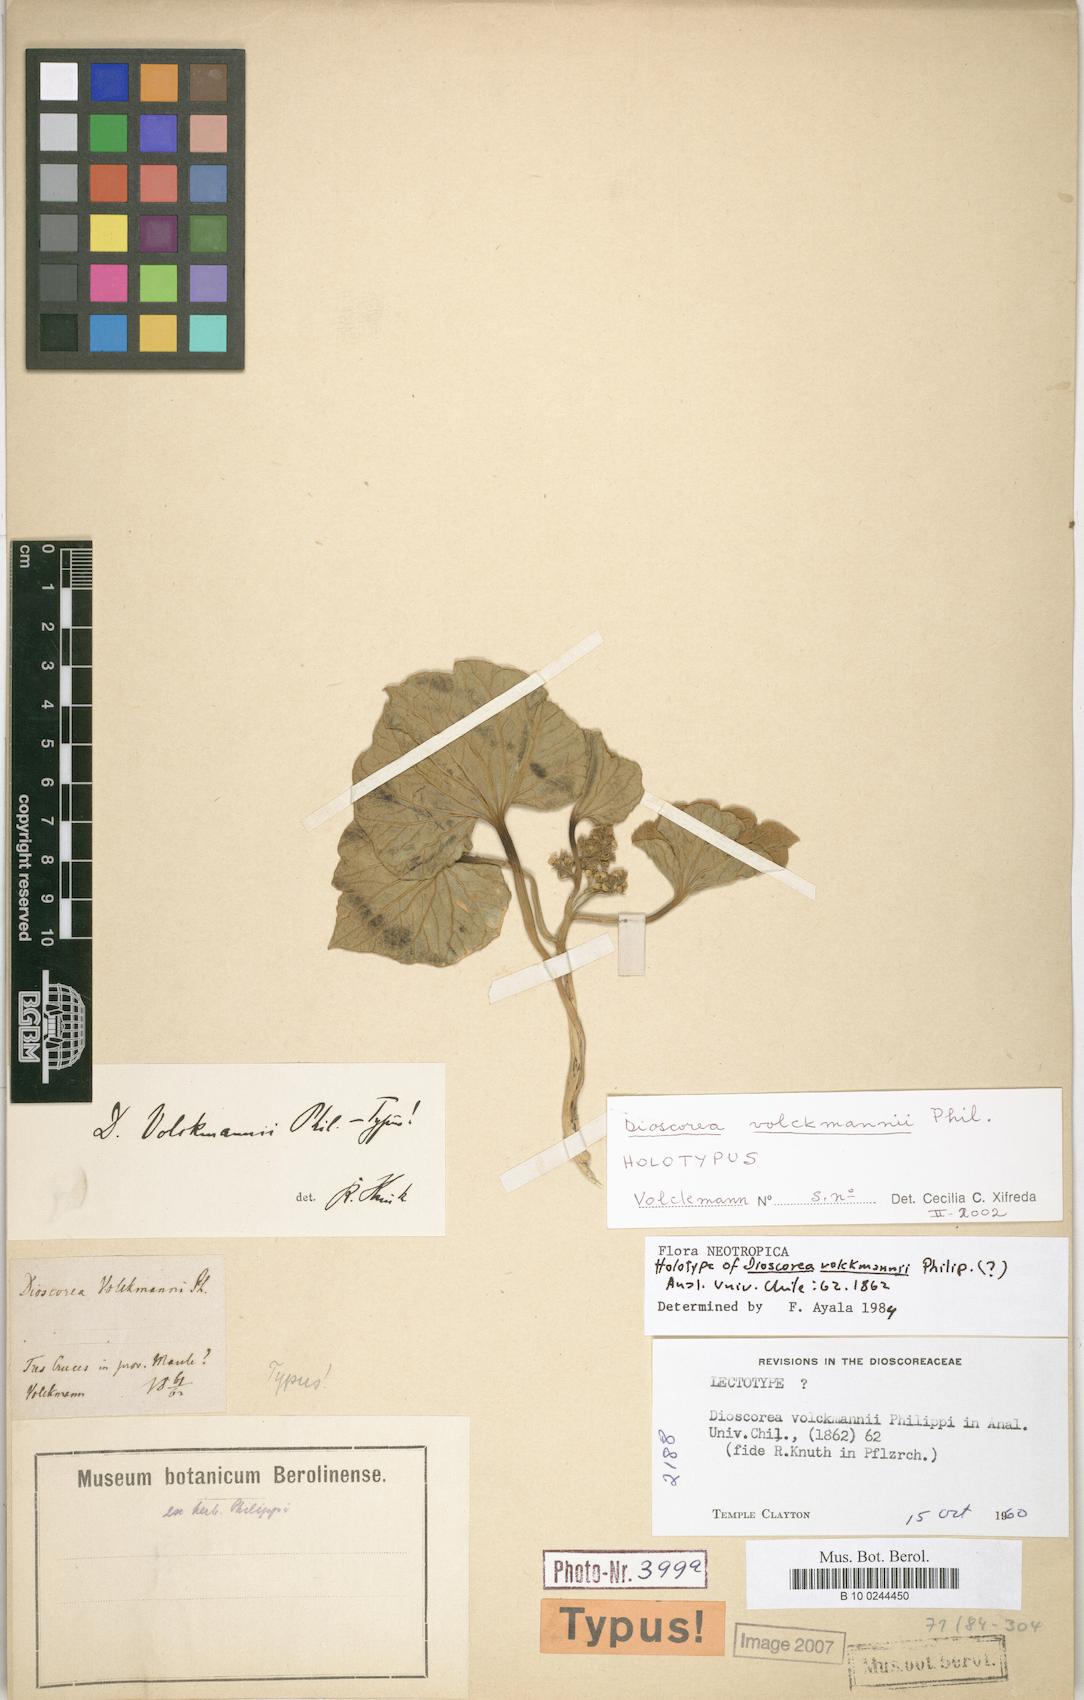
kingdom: Plantae
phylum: Tracheophyta
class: Liliopsida
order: Dioscoreales
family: Dioscoreaceae
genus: Dioscorea
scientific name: Dioscorea volckmannii
